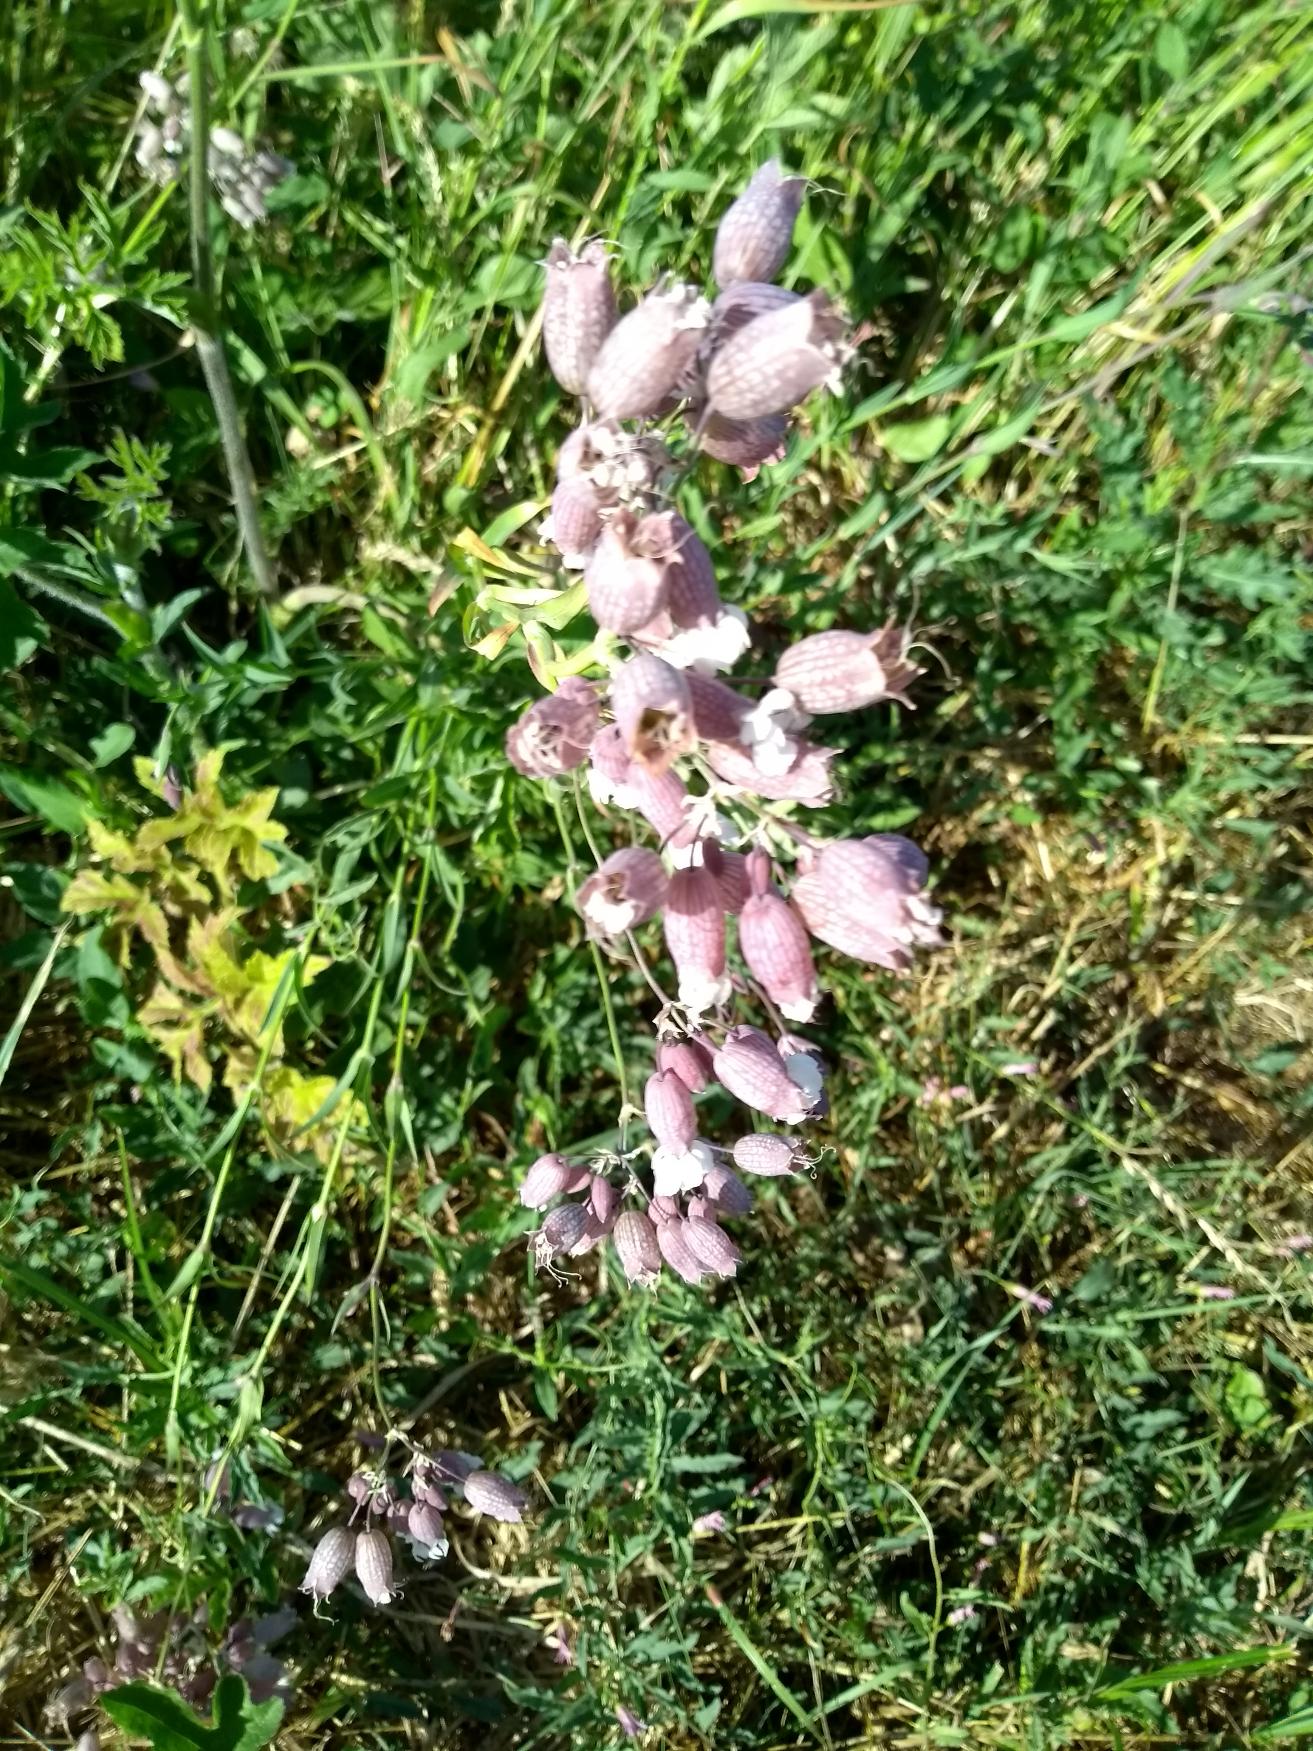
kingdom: Plantae
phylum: Tracheophyta
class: Magnoliopsida
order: Caryophyllales
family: Caryophyllaceae
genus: Silene
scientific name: Silene vulgaris
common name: Blæresmælde
